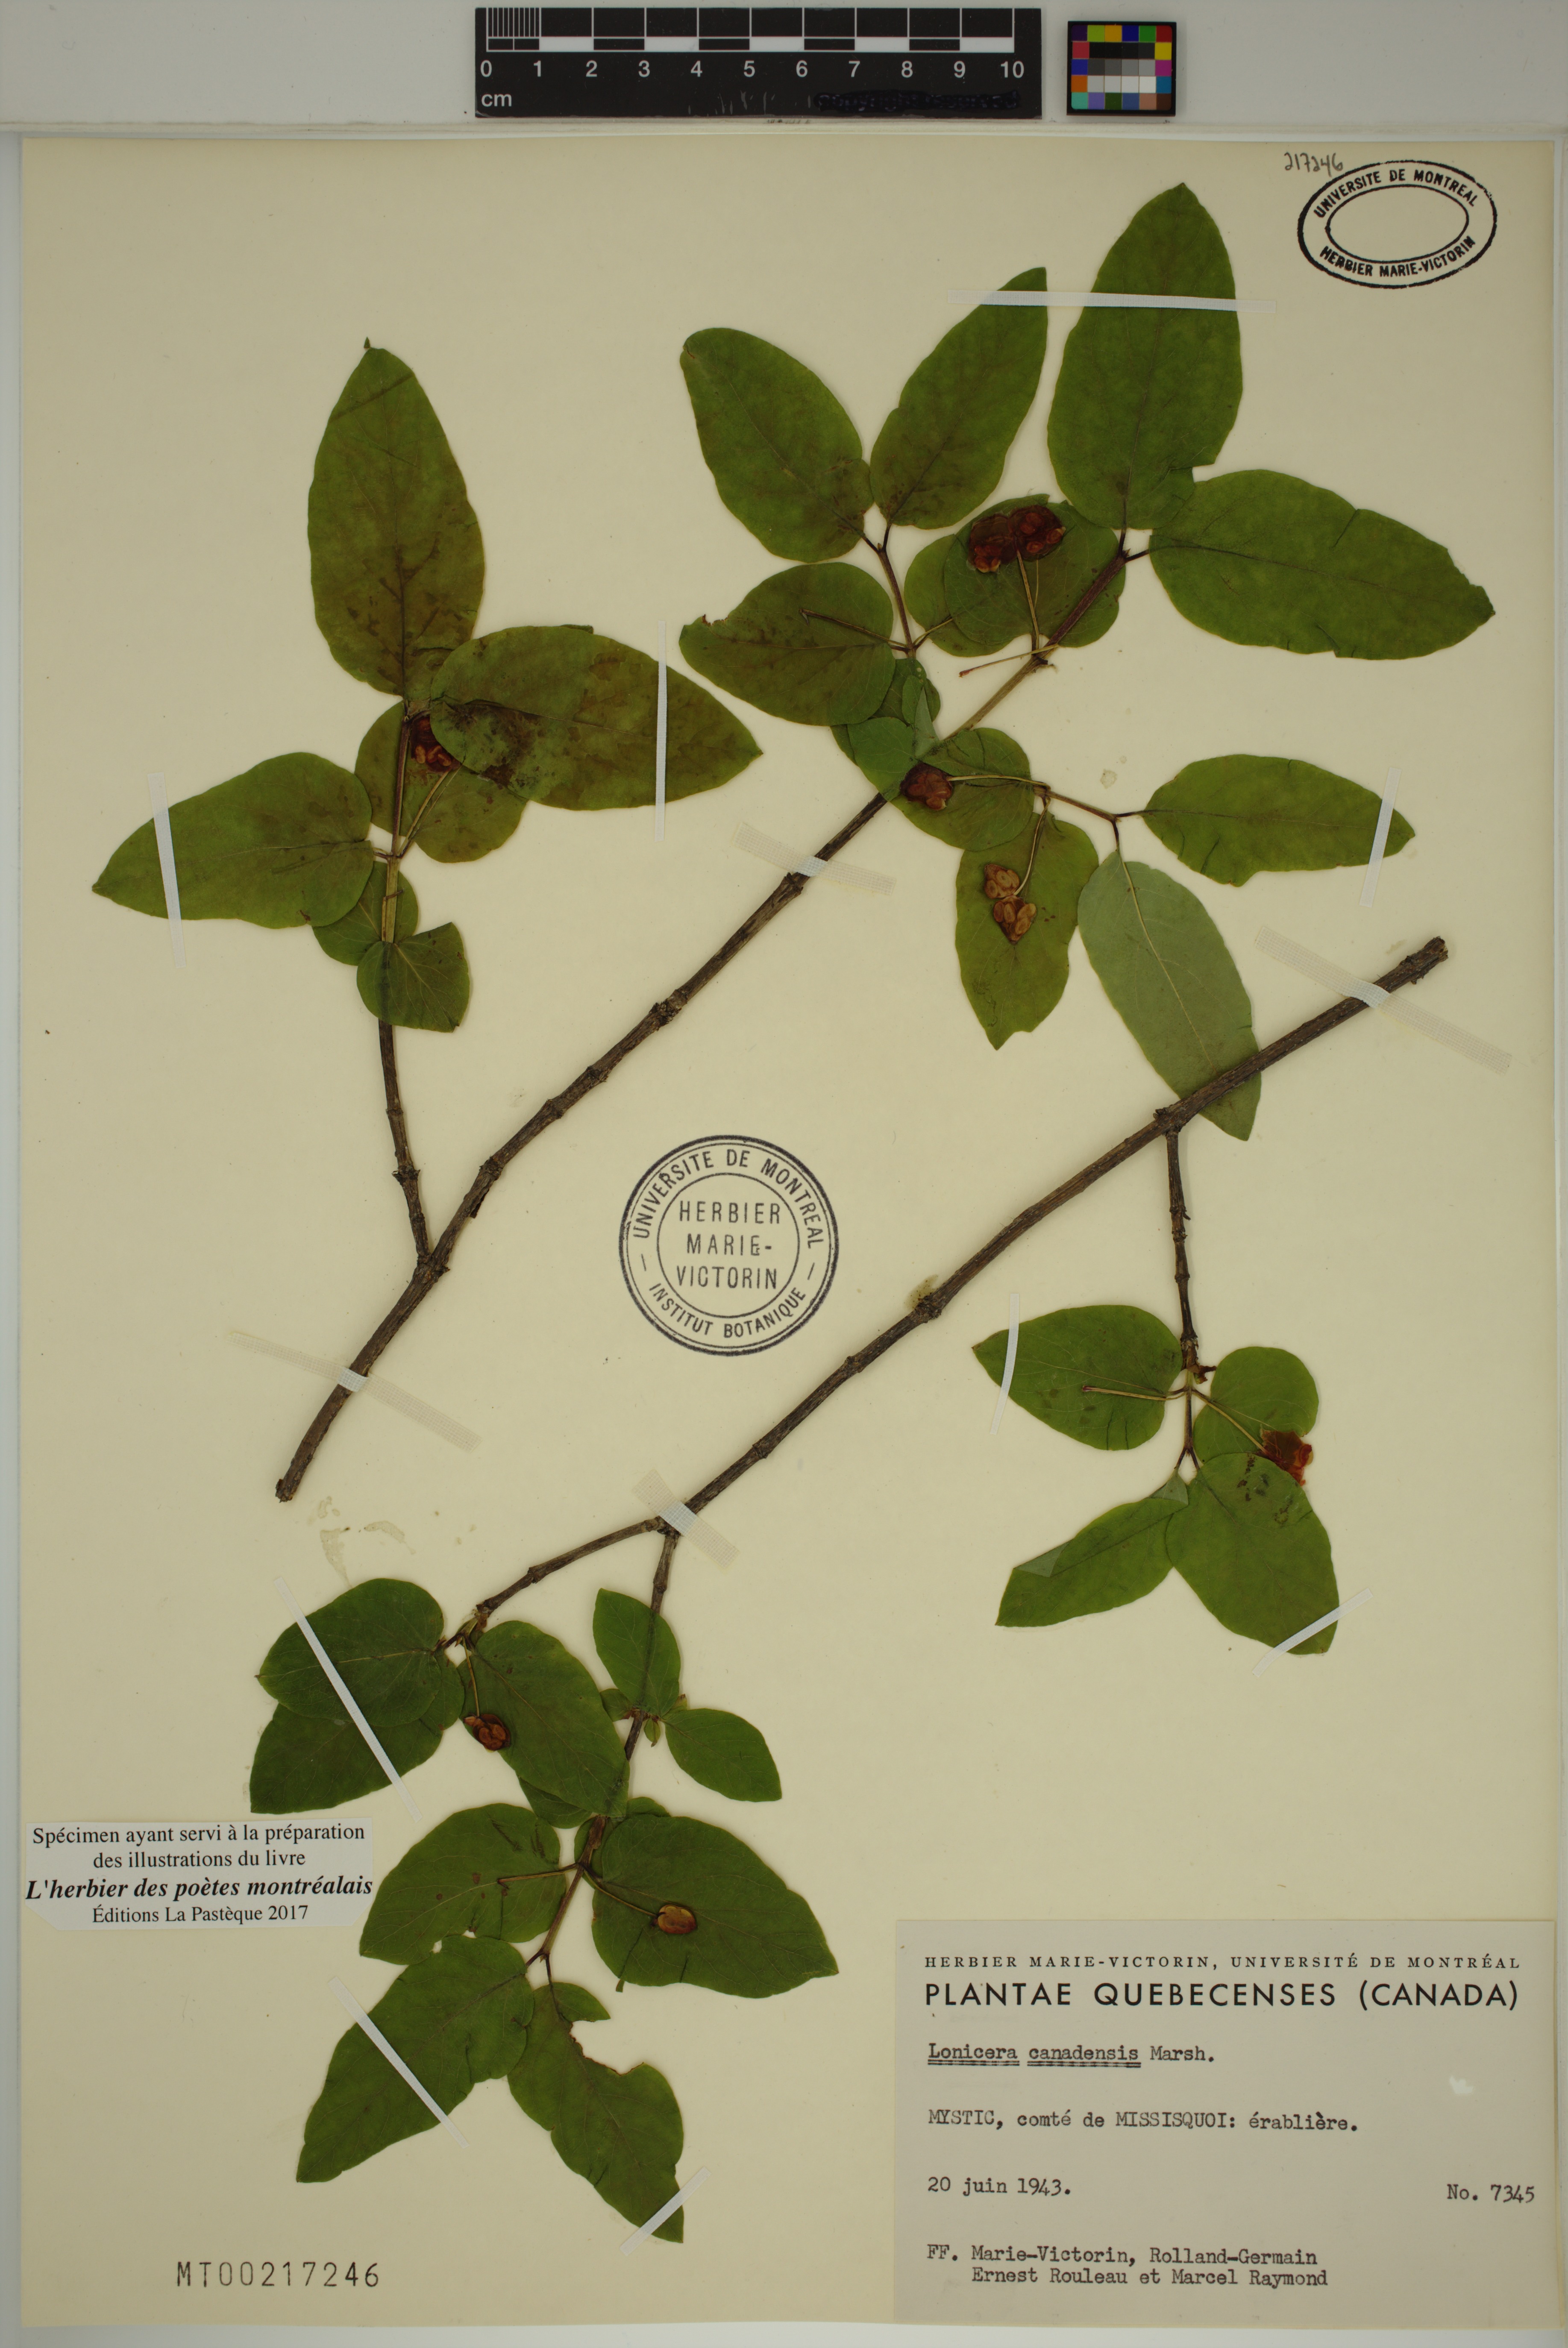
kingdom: Plantae
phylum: Tracheophyta
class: Magnoliopsida
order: Dipsacales
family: Caprifoliaceae
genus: Lonicera
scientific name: Lonicera canadensis
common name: American fly-honeysuckle
